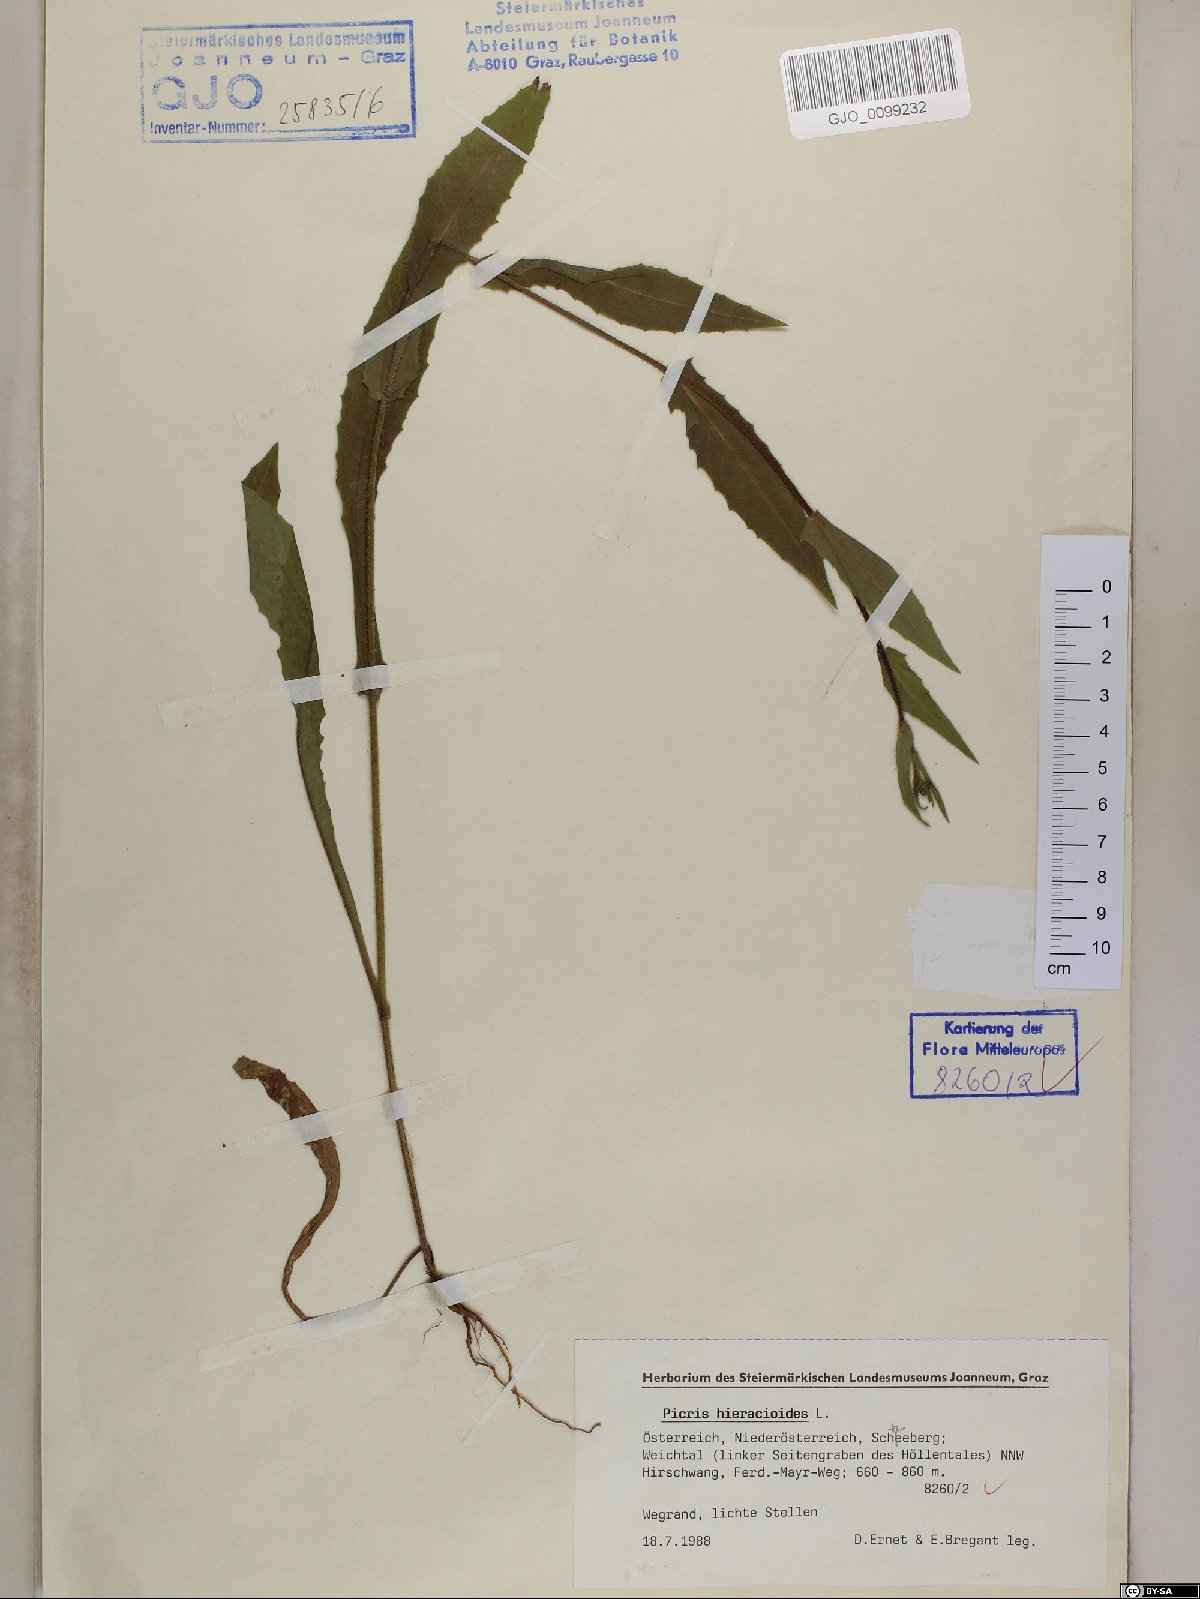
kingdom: Plantae
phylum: Tracheophyta
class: Magnoliopsida
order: Asterales
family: Asteraceae
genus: Picris
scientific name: Picris hieracioides
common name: Hawkweed oxtongue
